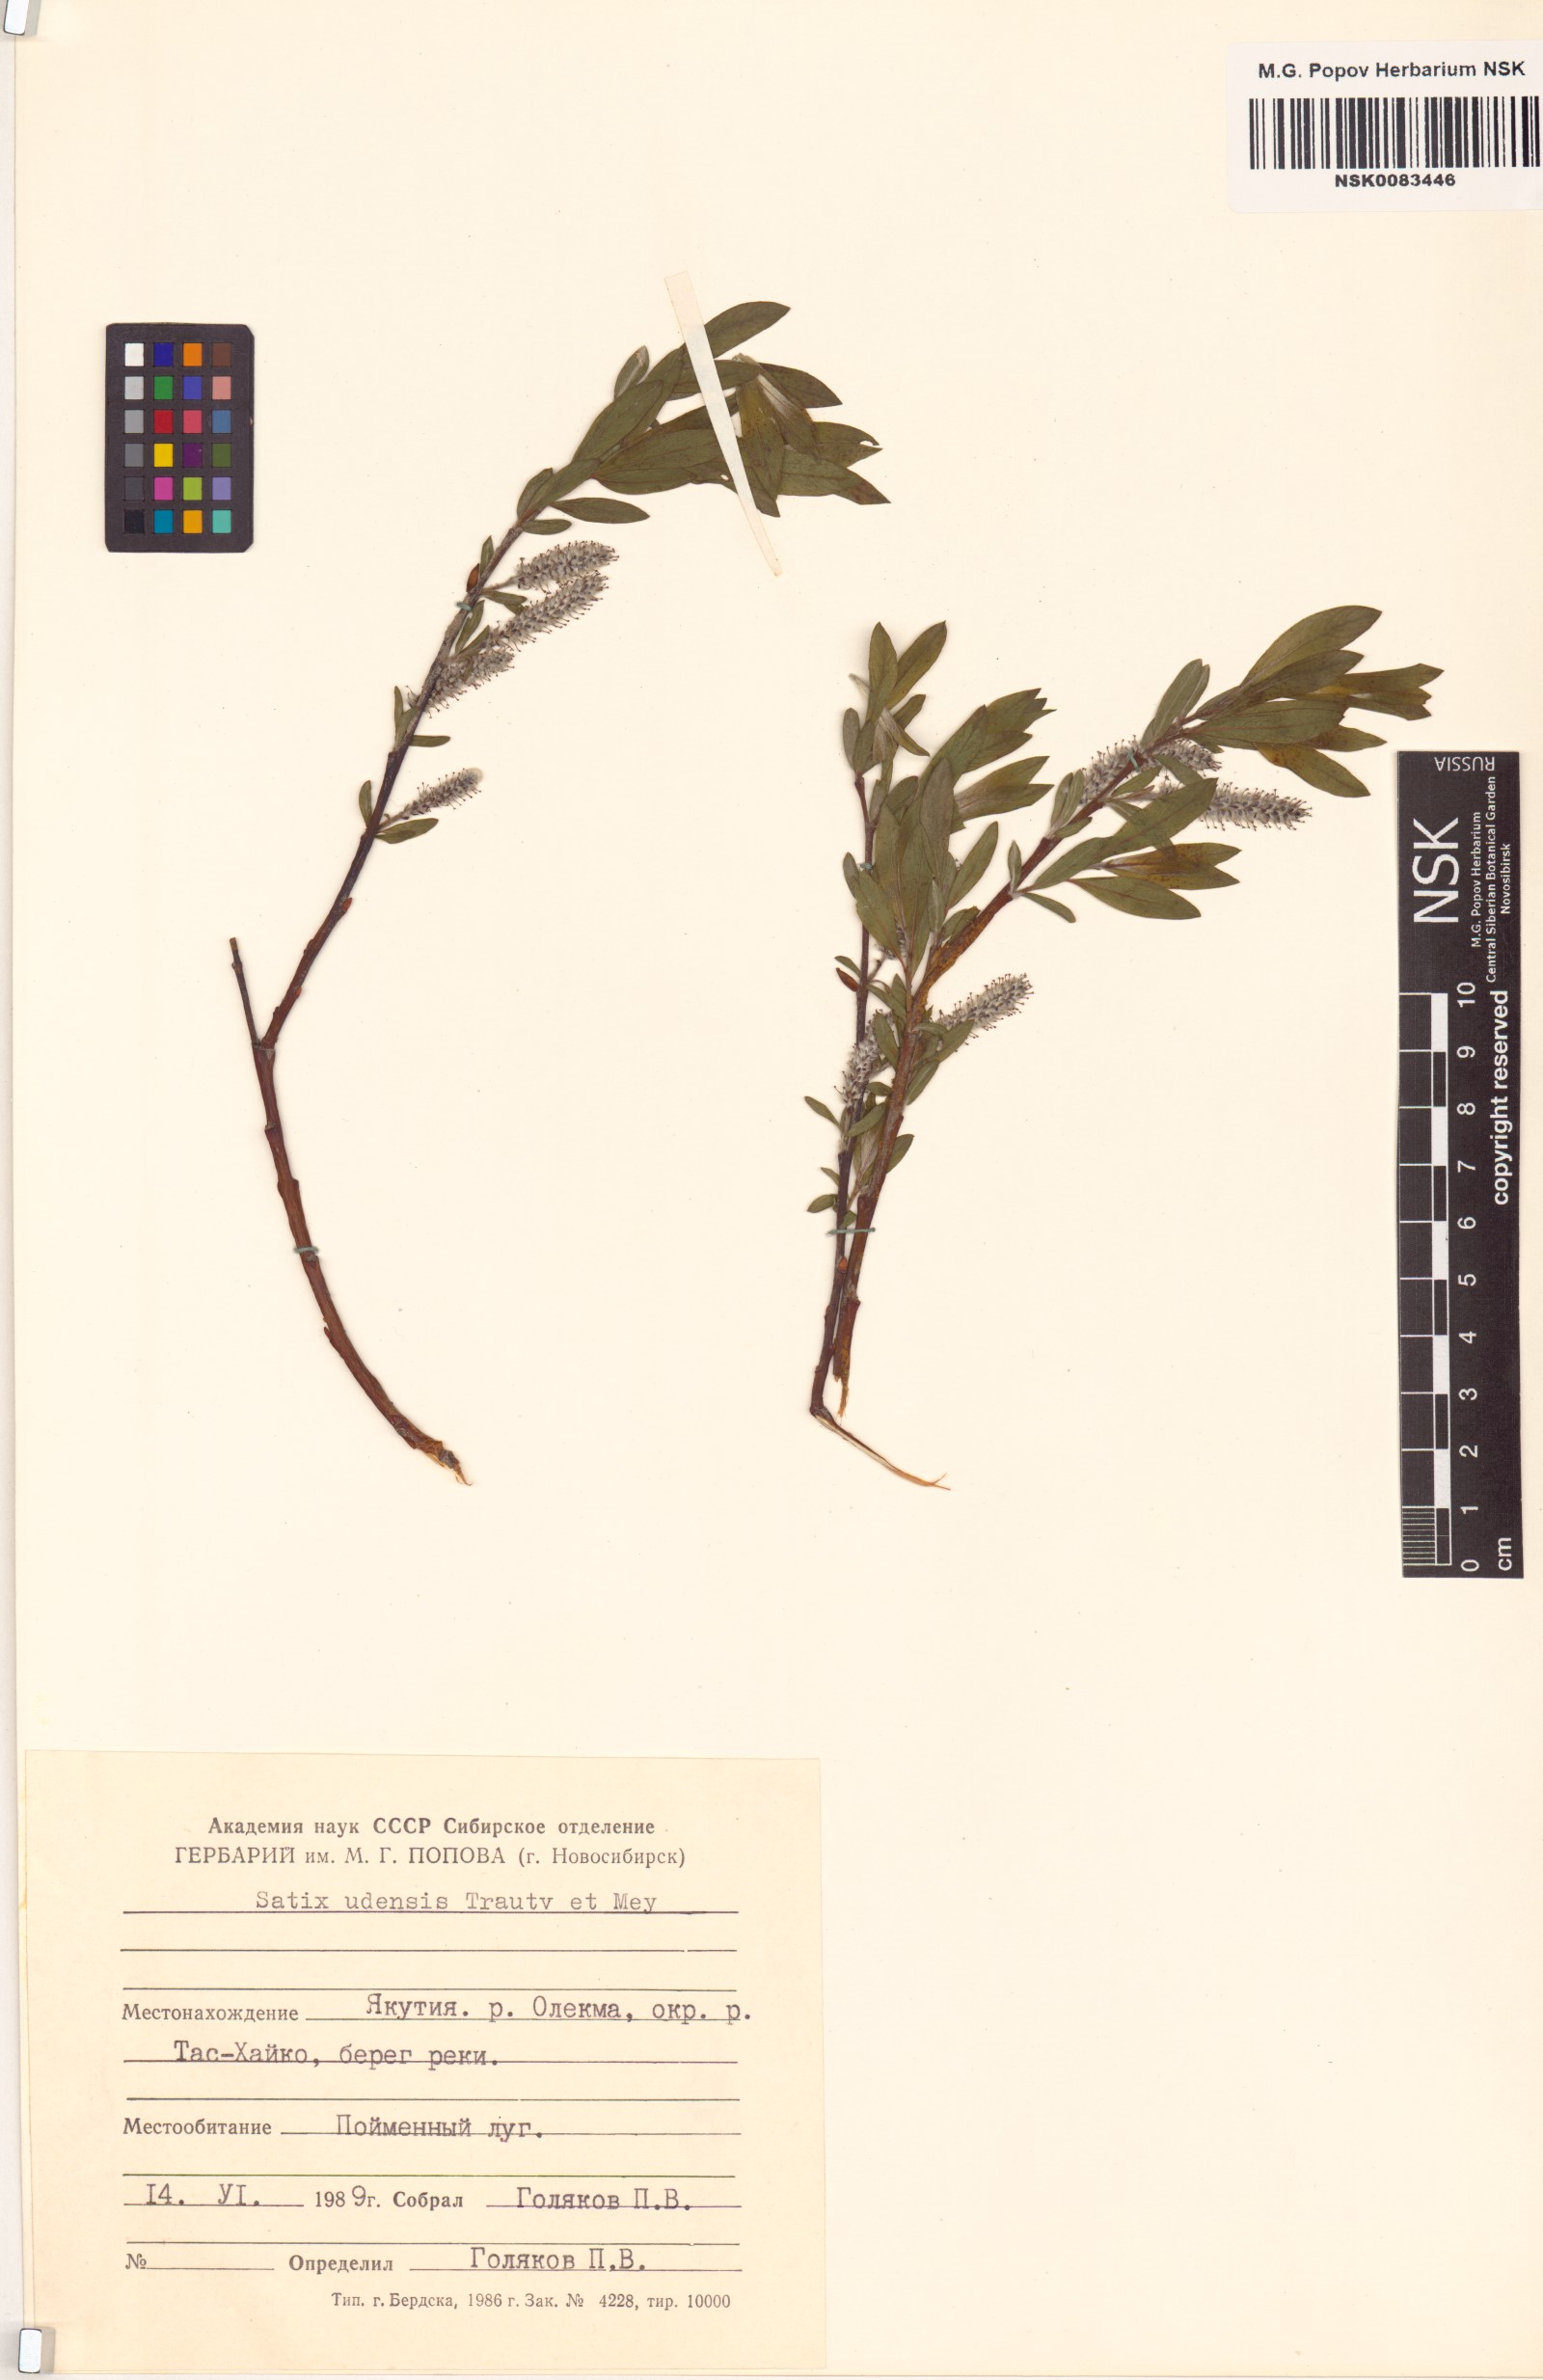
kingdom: Plantae
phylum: Tracheophyta
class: Magnoliopsida
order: Malpighiales
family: Salicaceae
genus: Salix
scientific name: Salix udensis
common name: Sachalin willow
